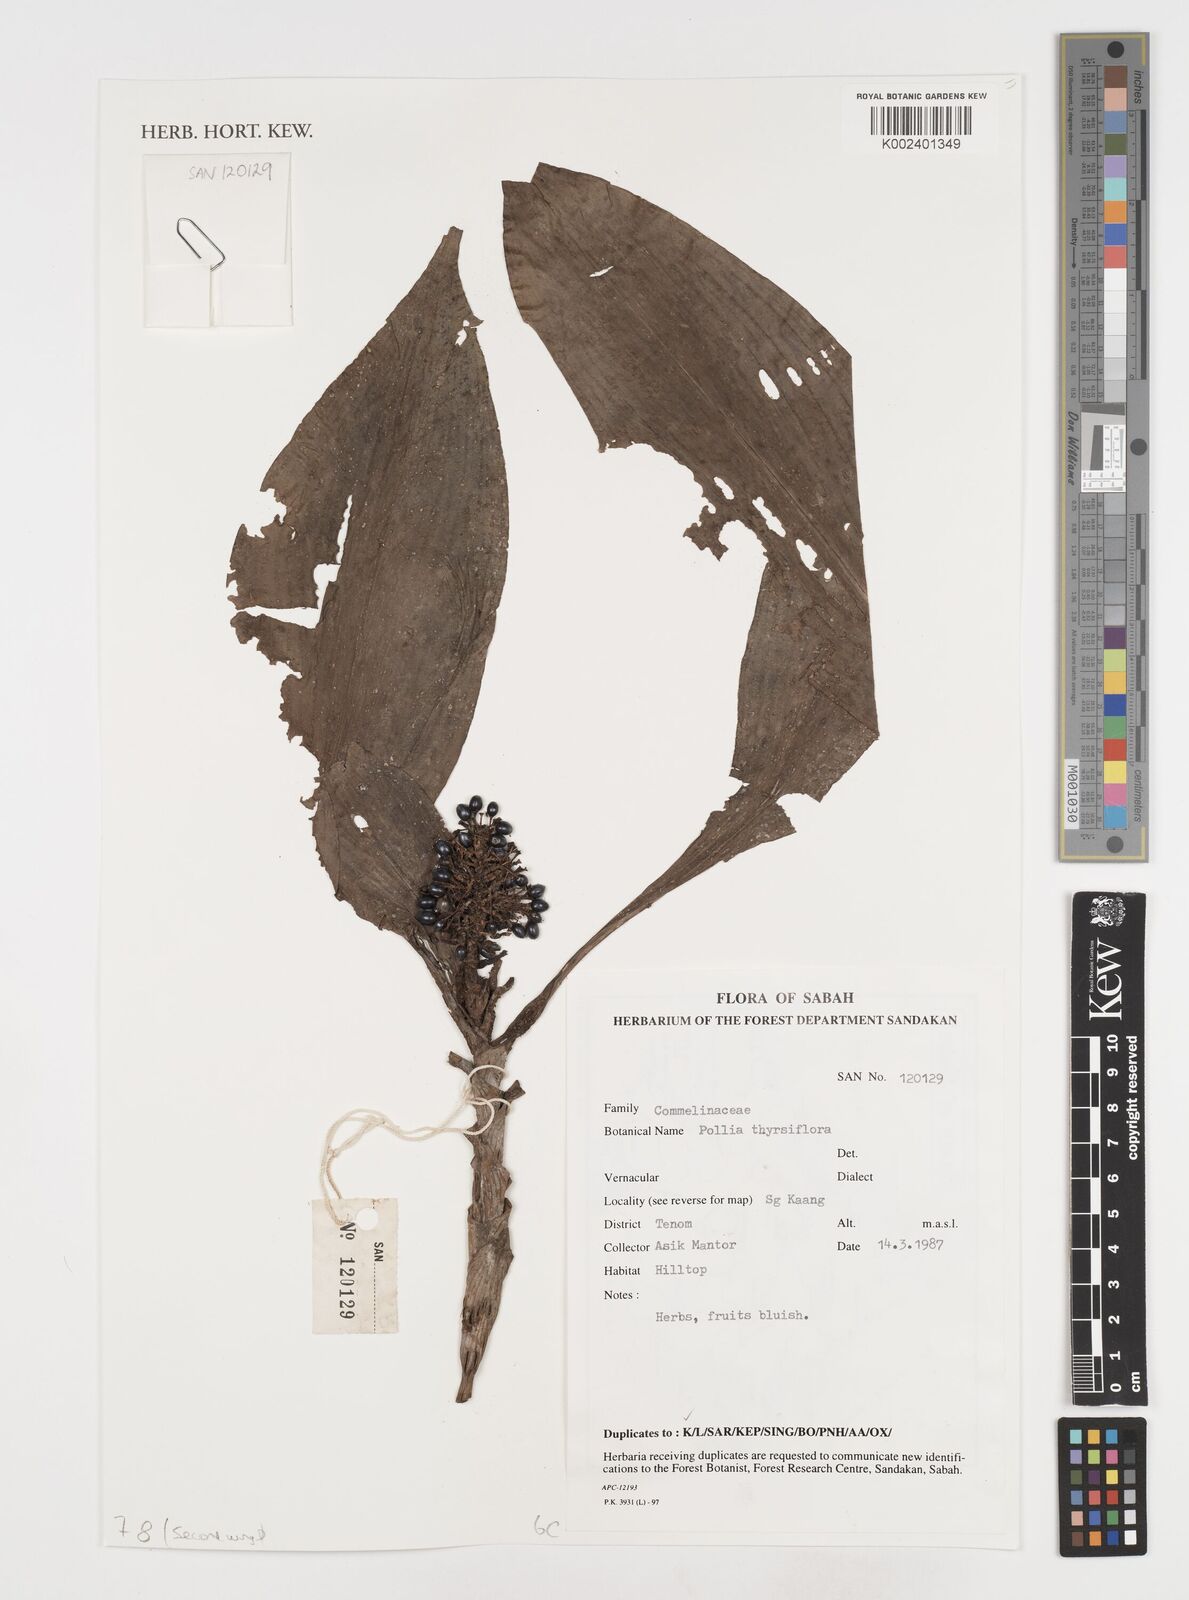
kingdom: Plantae
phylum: Tracheophyta
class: Liliopsida
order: Commelinales
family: Commelinaceae
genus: Pollia
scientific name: Pollia thyrsiflora
